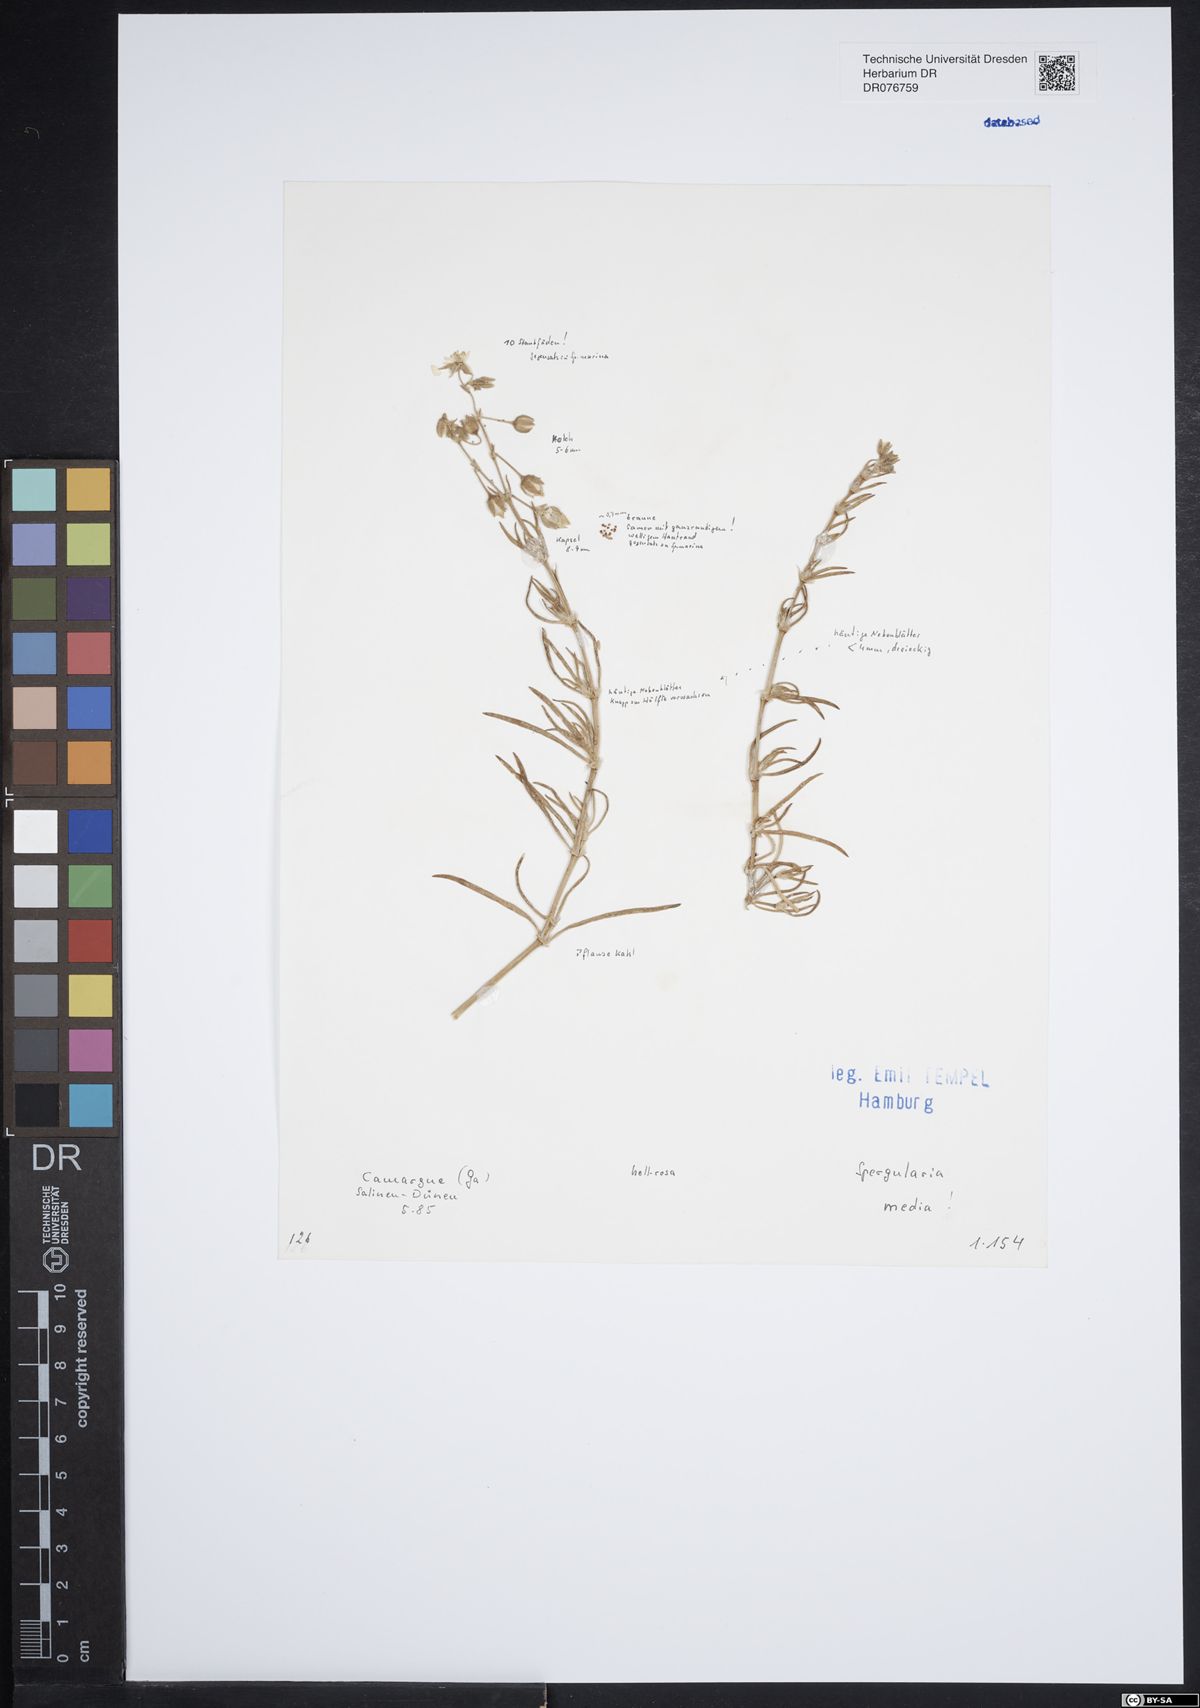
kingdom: Plantae
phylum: Tracheophyta
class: Magnoliopsida
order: Caryophyllales
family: Caryophyllaceae
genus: Spergularia
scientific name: Spergularia media
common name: Greater sea-spurrey
